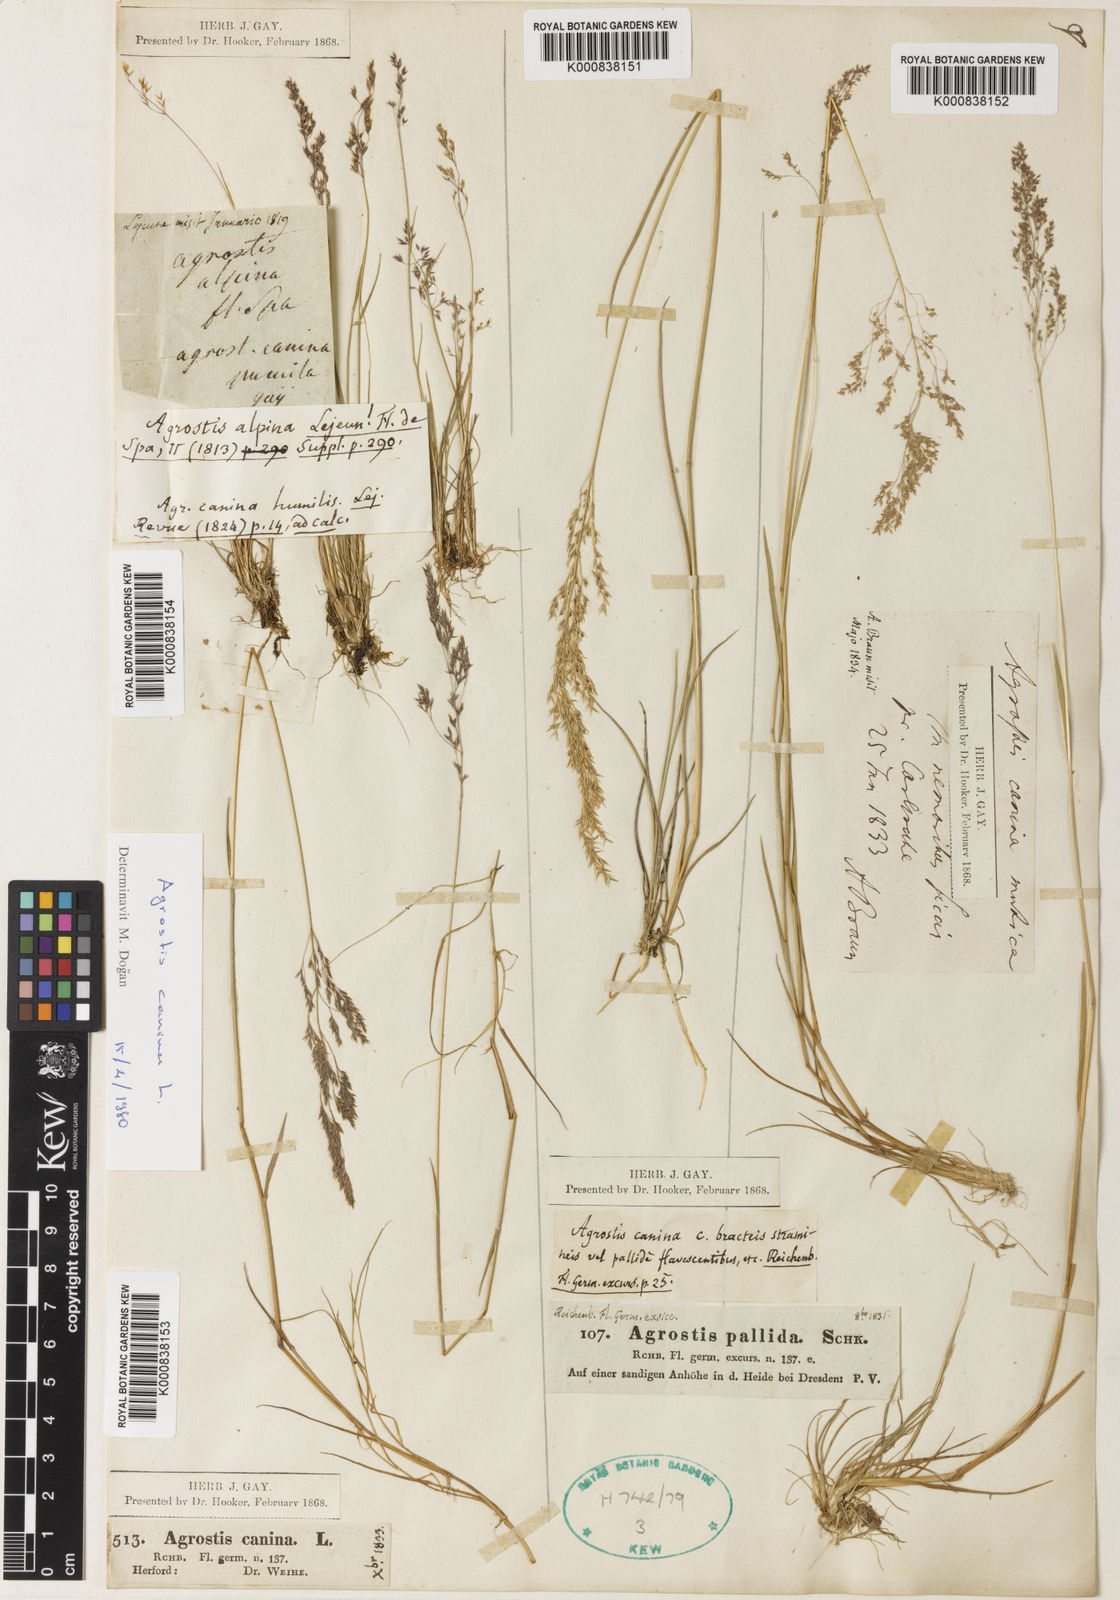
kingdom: Plantae
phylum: Tracheophyta
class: Liliopsida
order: Poales
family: Poaceae
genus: Agrostis
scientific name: Agrostis canina
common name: Velvet bent
